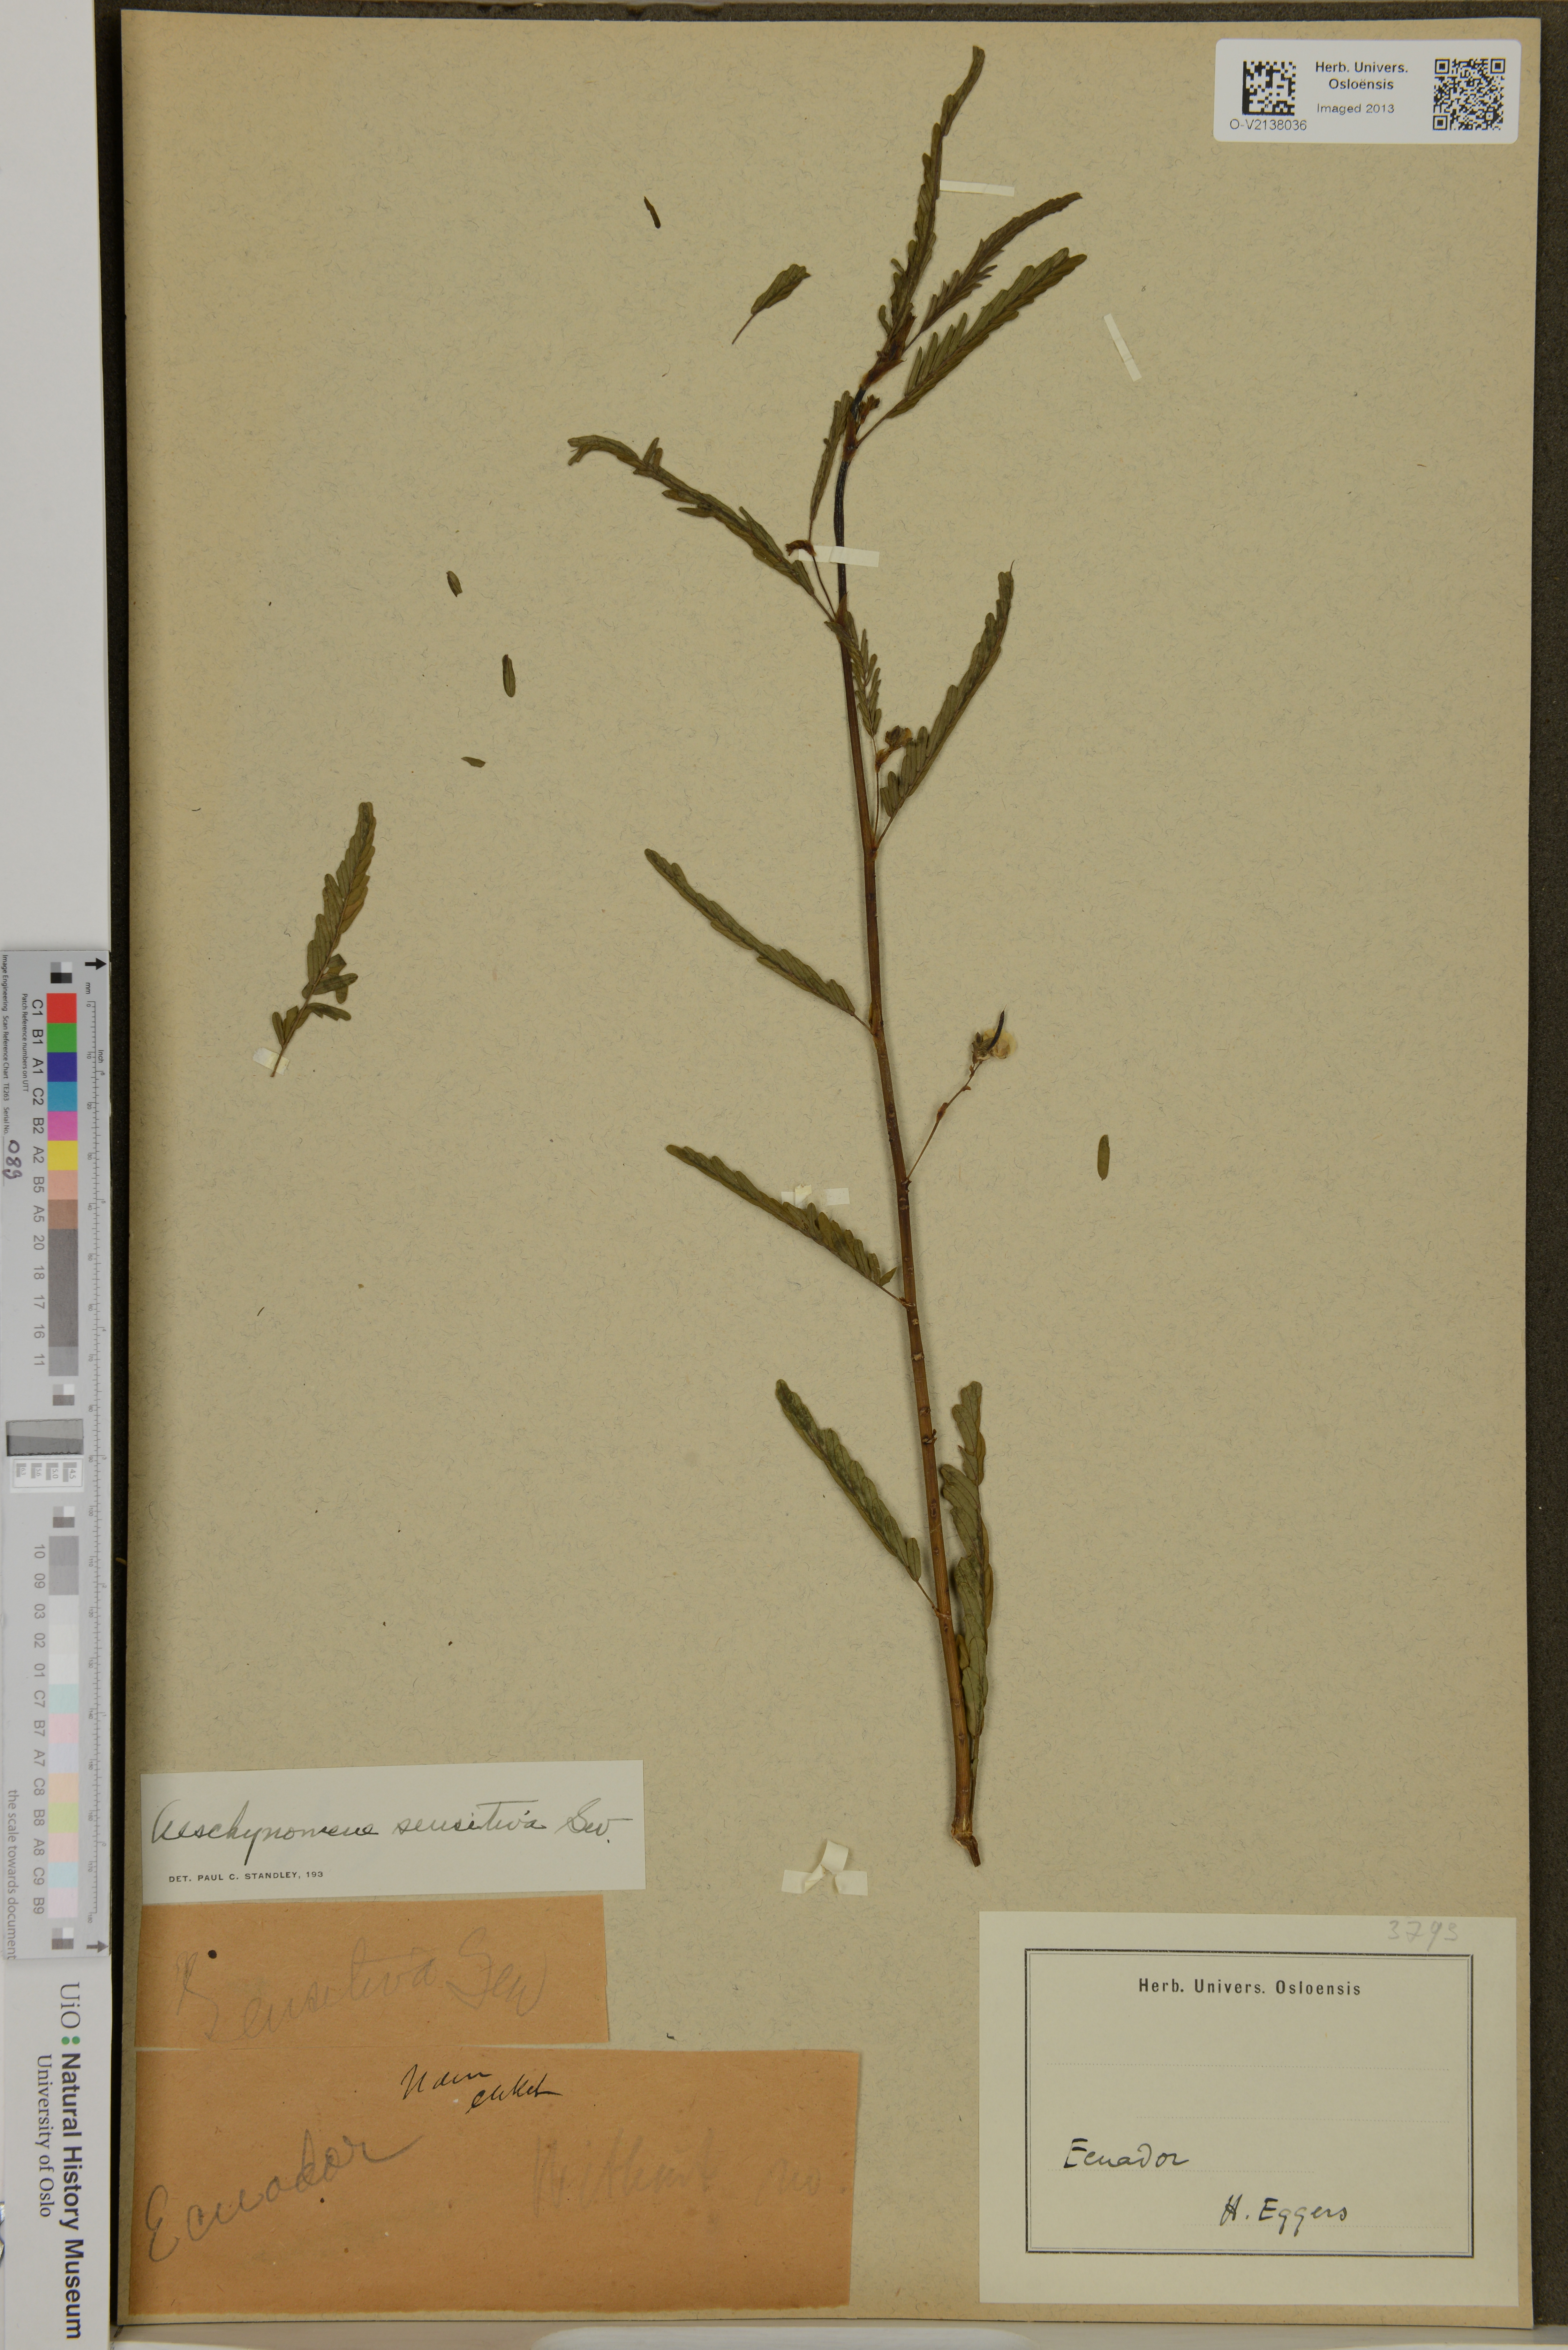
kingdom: Plantae
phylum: Tracheophyta
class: Magnoliopsida
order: Fabales
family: Fabaceae
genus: Aeschynomene
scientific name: Aeschynomene sensitiva
